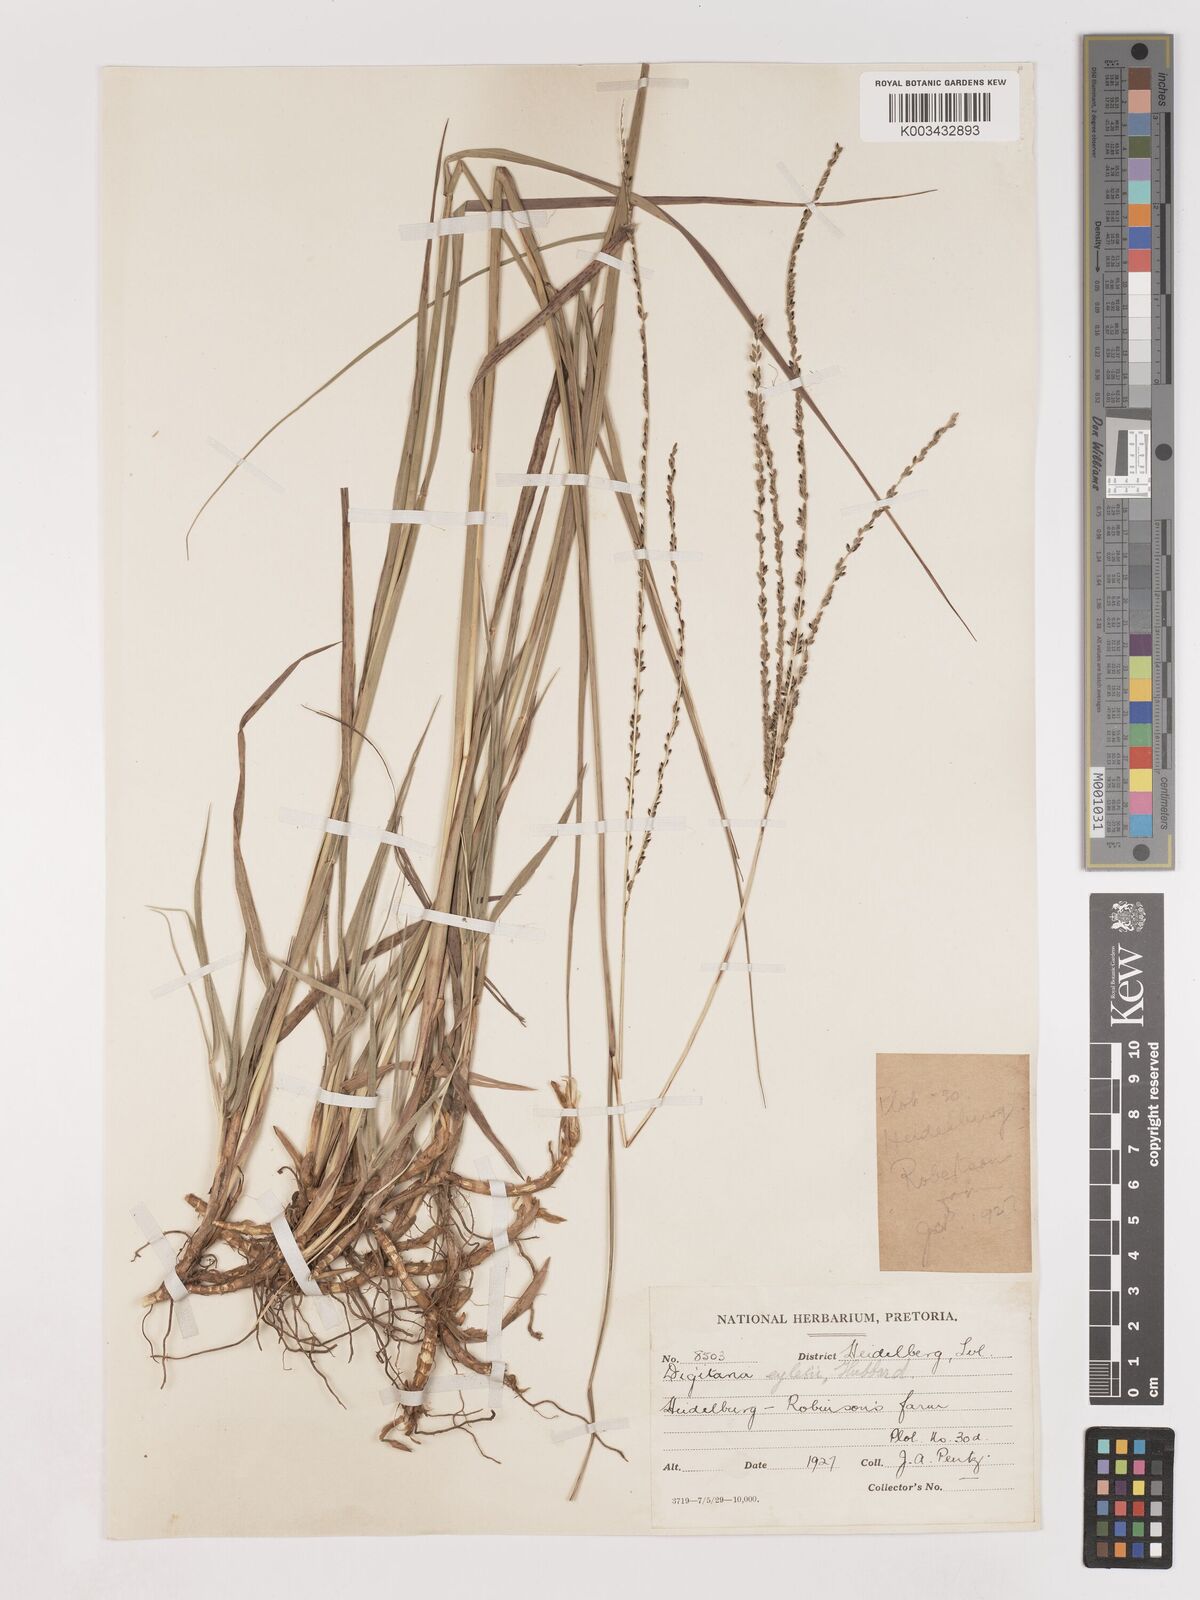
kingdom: Plantae
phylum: Tracheophyta
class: Liliopsida
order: Poales
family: Poaceae
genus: Digitaria
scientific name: Digitaria eylesii
